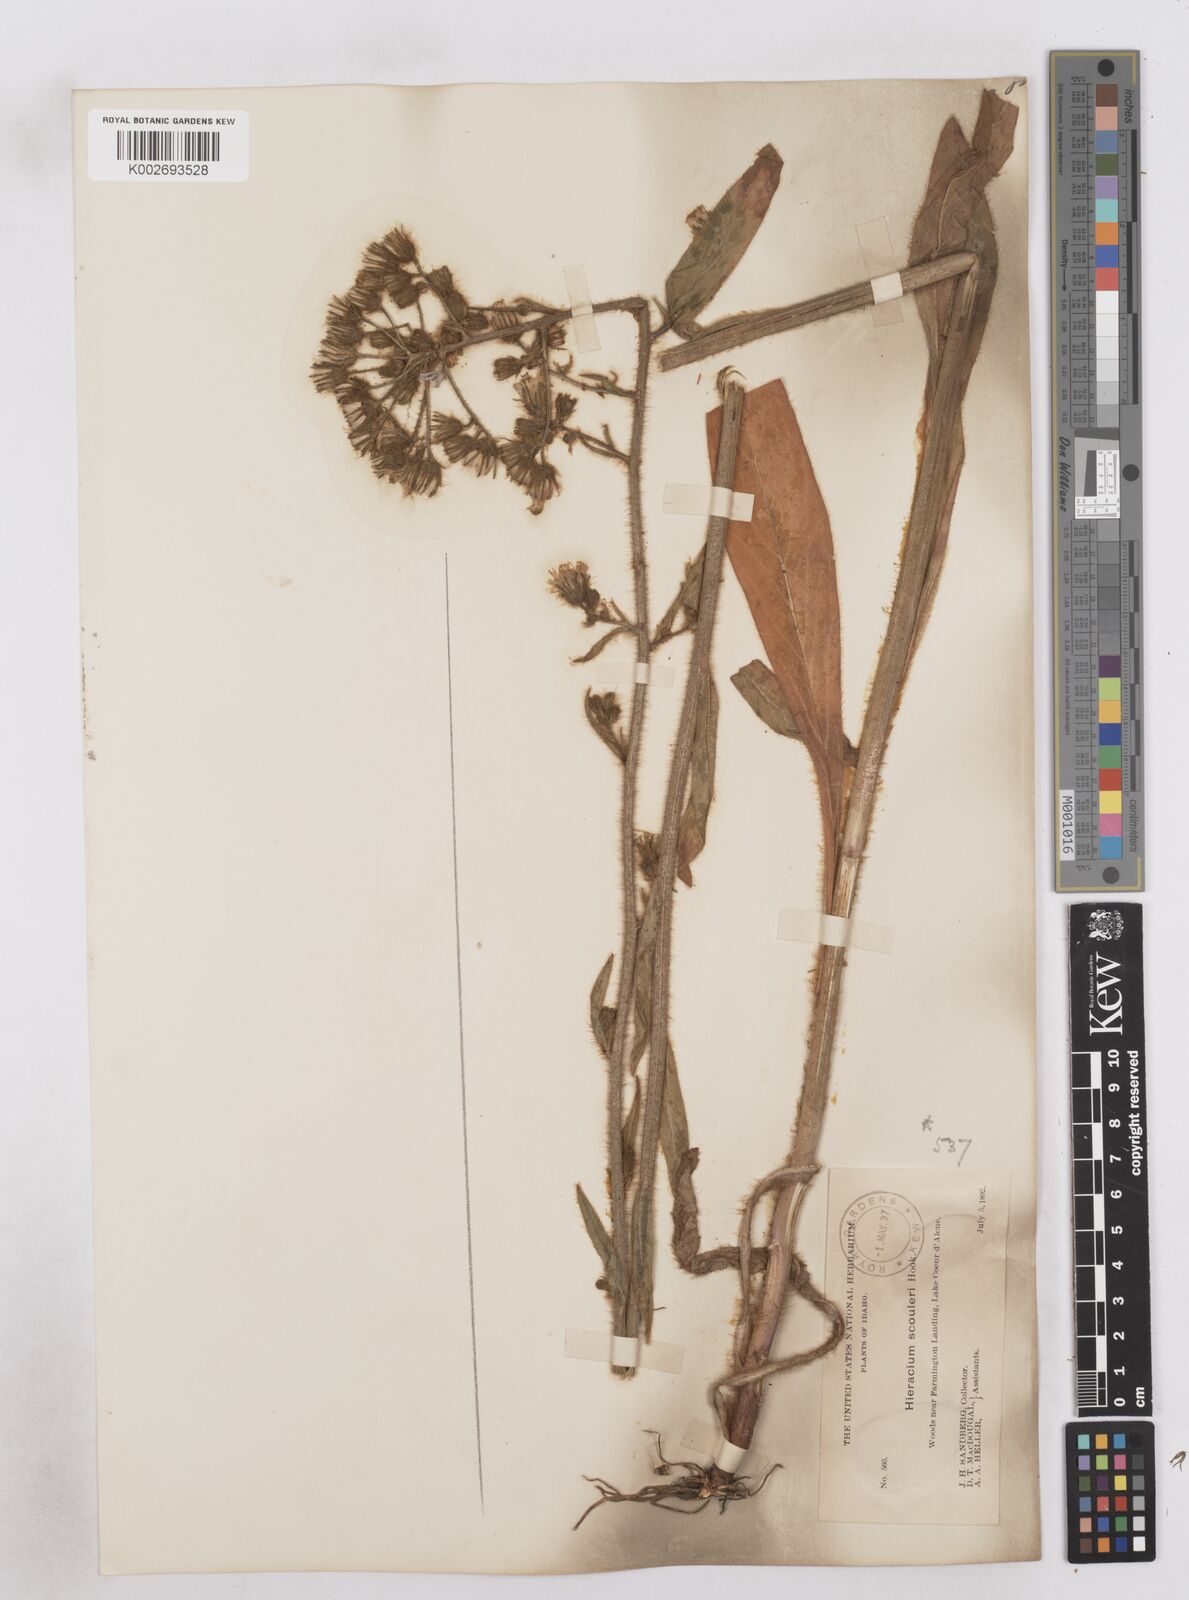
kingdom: Plantae
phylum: Tracheophyta
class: Magnoliopsida
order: Asterales
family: Asteraceae
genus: Hieracium
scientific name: Hieracium scouleri
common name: Hound's-tongue hawkweed
